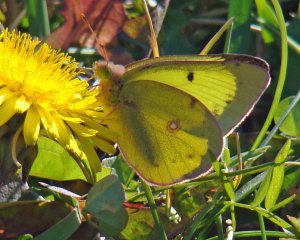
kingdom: Animalia
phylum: Arthropoda
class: Insecta
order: Lepidoptera
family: Pieridae
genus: Colias
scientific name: Colias philodice
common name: Clouded Sulphur
